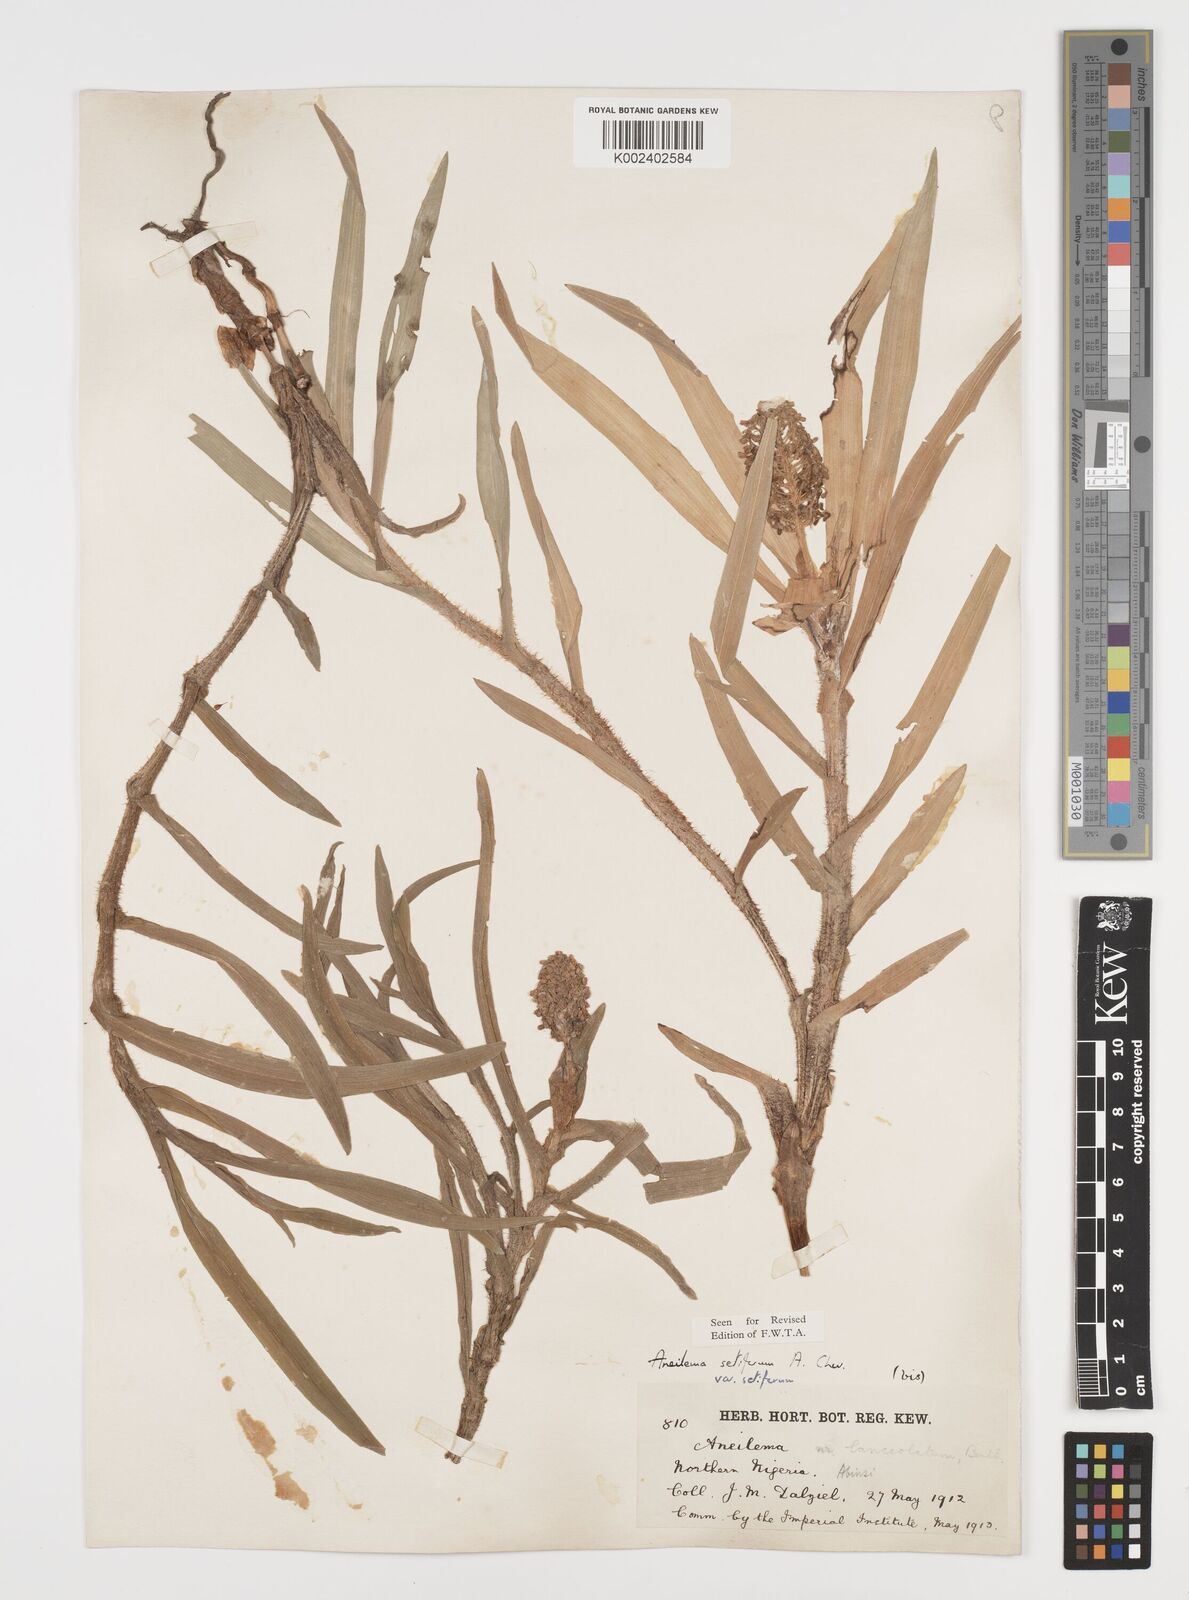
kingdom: Plantae
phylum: Tracheophyta
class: Liliopsida
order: Commelinales
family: Commelinaceae
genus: Aneilema
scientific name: Aneilema setiferum
